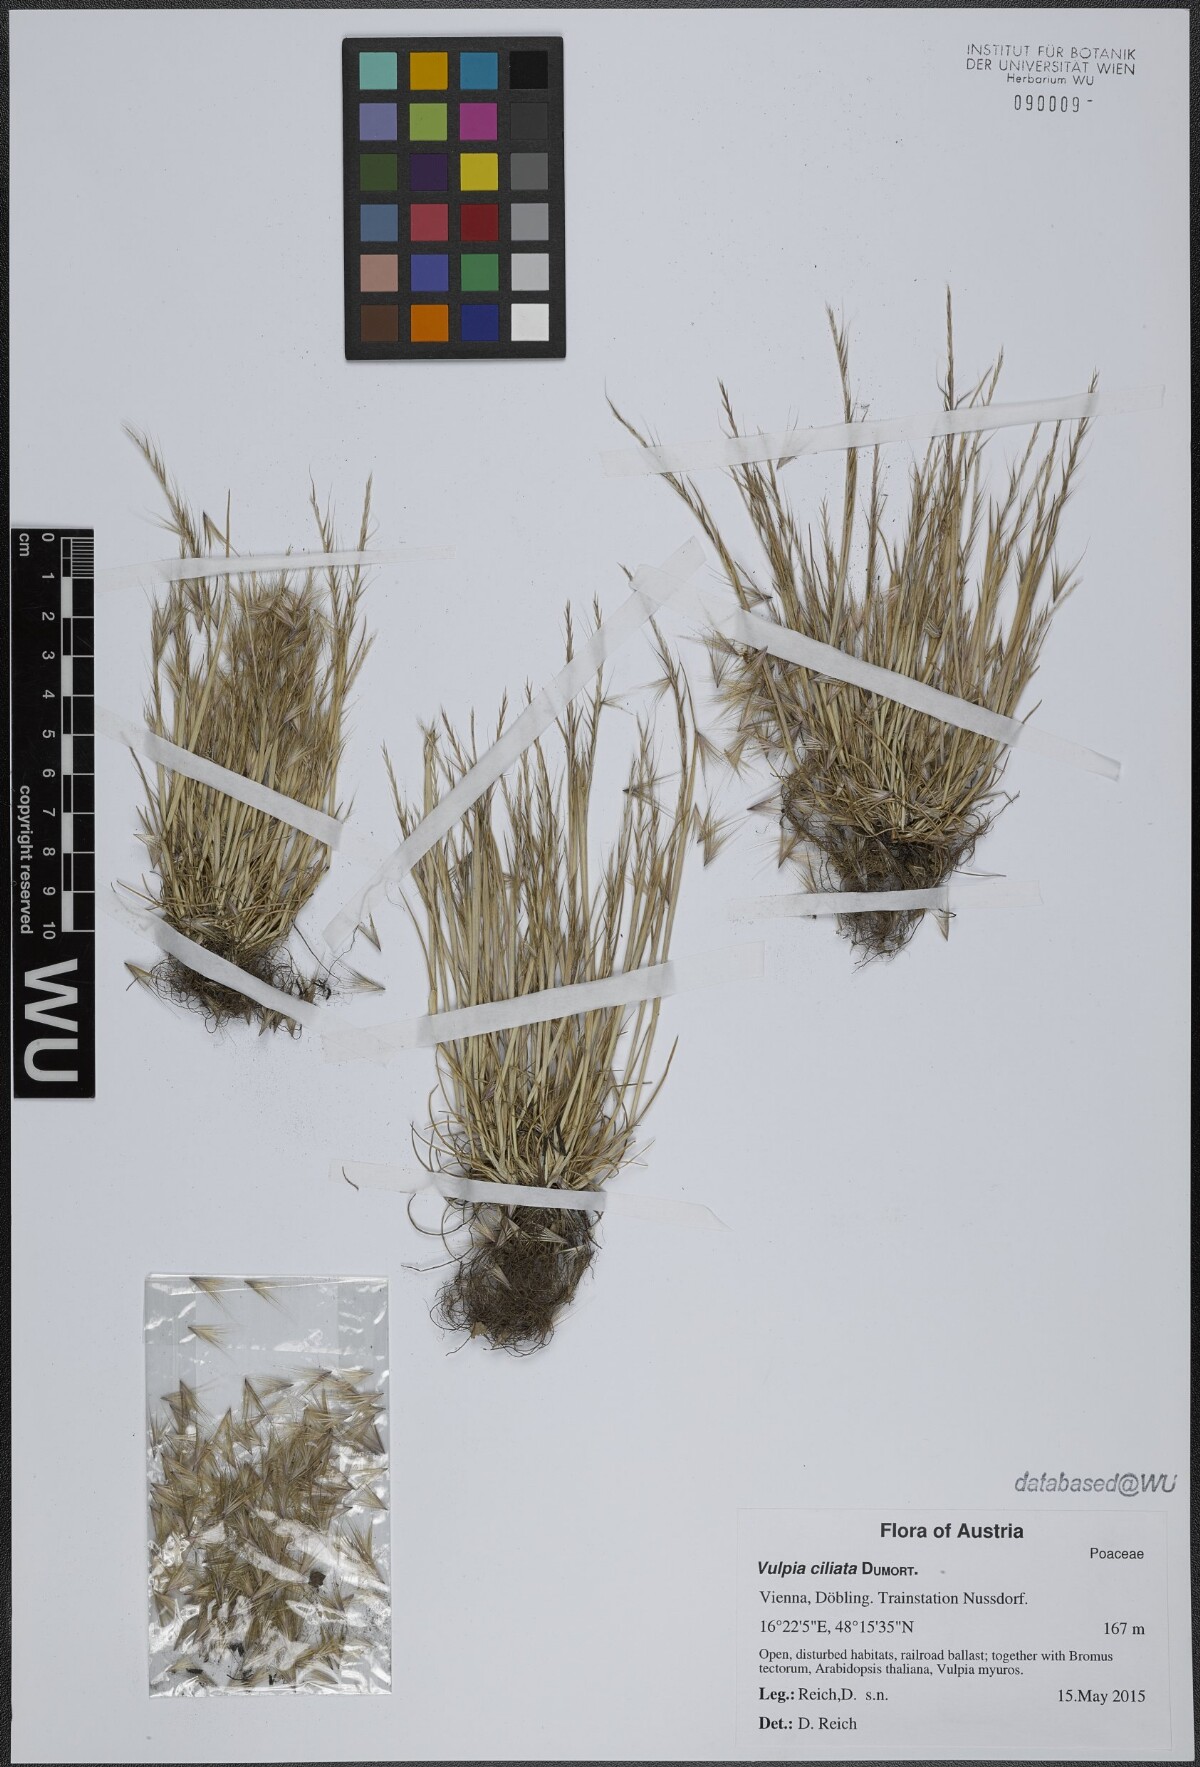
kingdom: Plantae
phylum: Tracheophyta
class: Liliopsida
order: Poales
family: Poaceae
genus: Festuca
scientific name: Festuca ambigua
